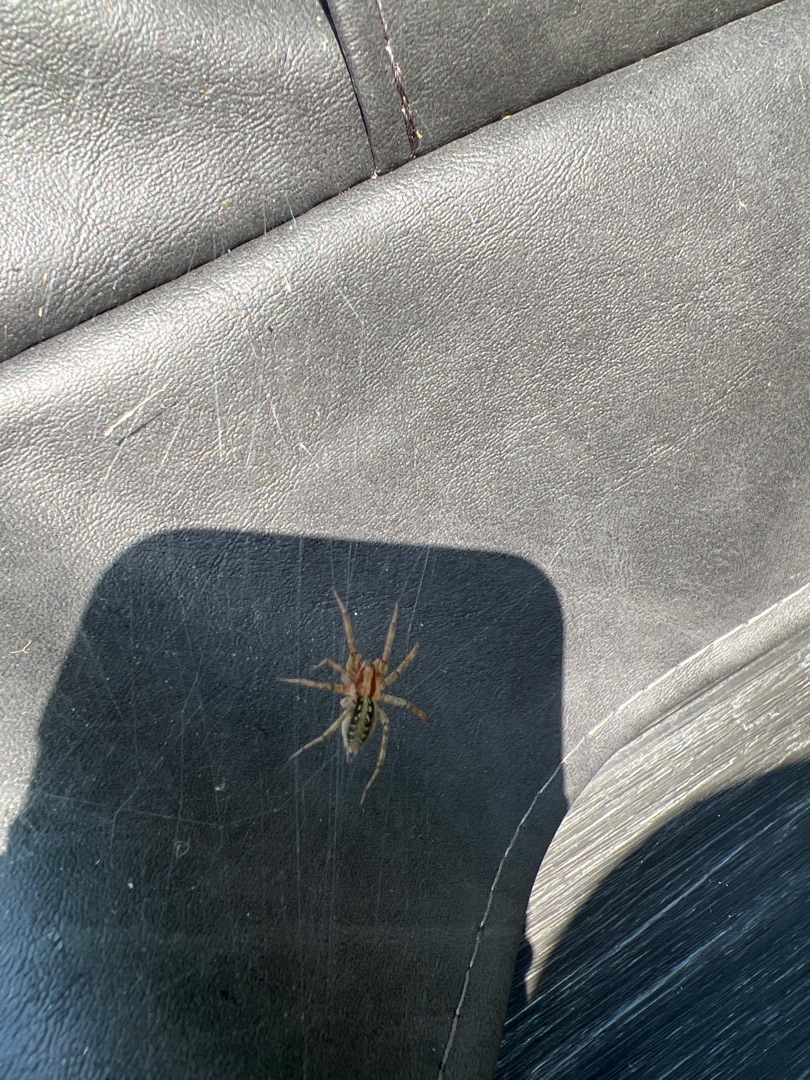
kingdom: Animalia
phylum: Arthropoda
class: Arachnida
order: Araneae
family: Agelenidae
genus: Agelena
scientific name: Agelena labyrinthica
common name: Labyrintedderkop
